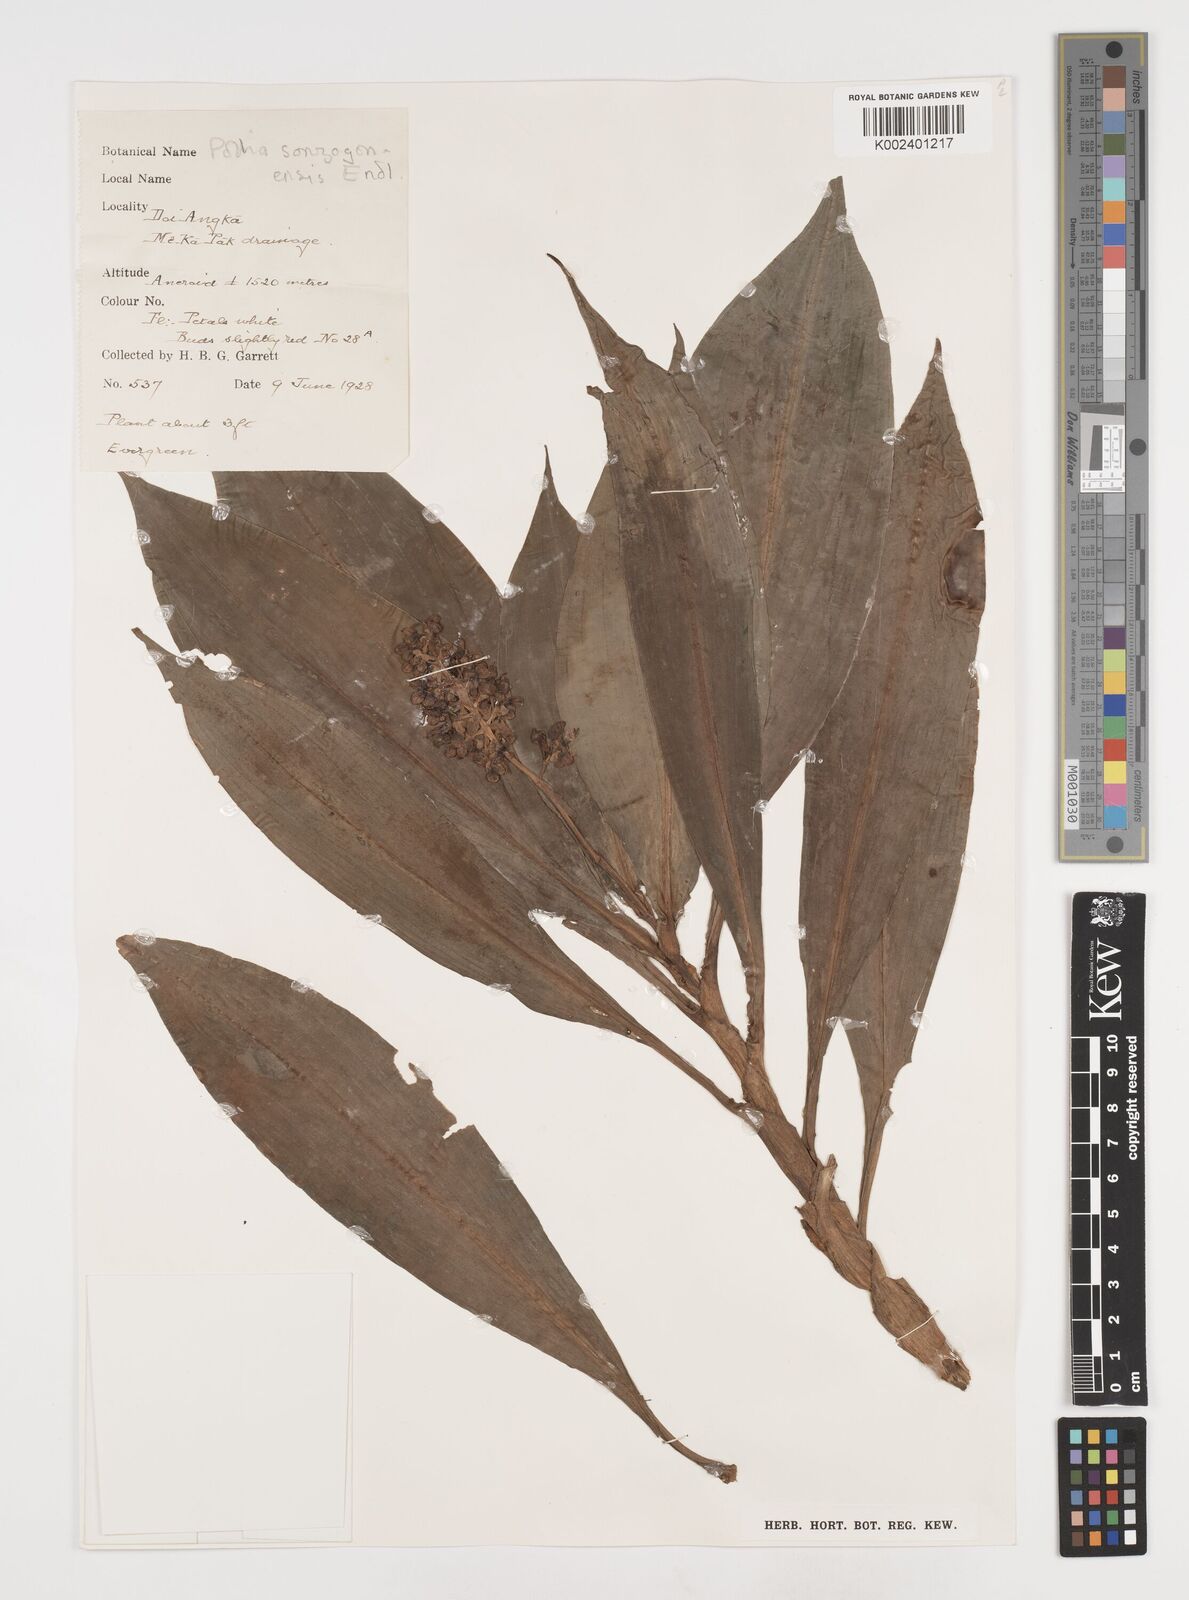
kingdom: Plantae
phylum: Tracheophyta
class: Liliopsida
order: Commelinales
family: Commelinaceae
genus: Pollia
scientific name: Pollia hasskarlii
